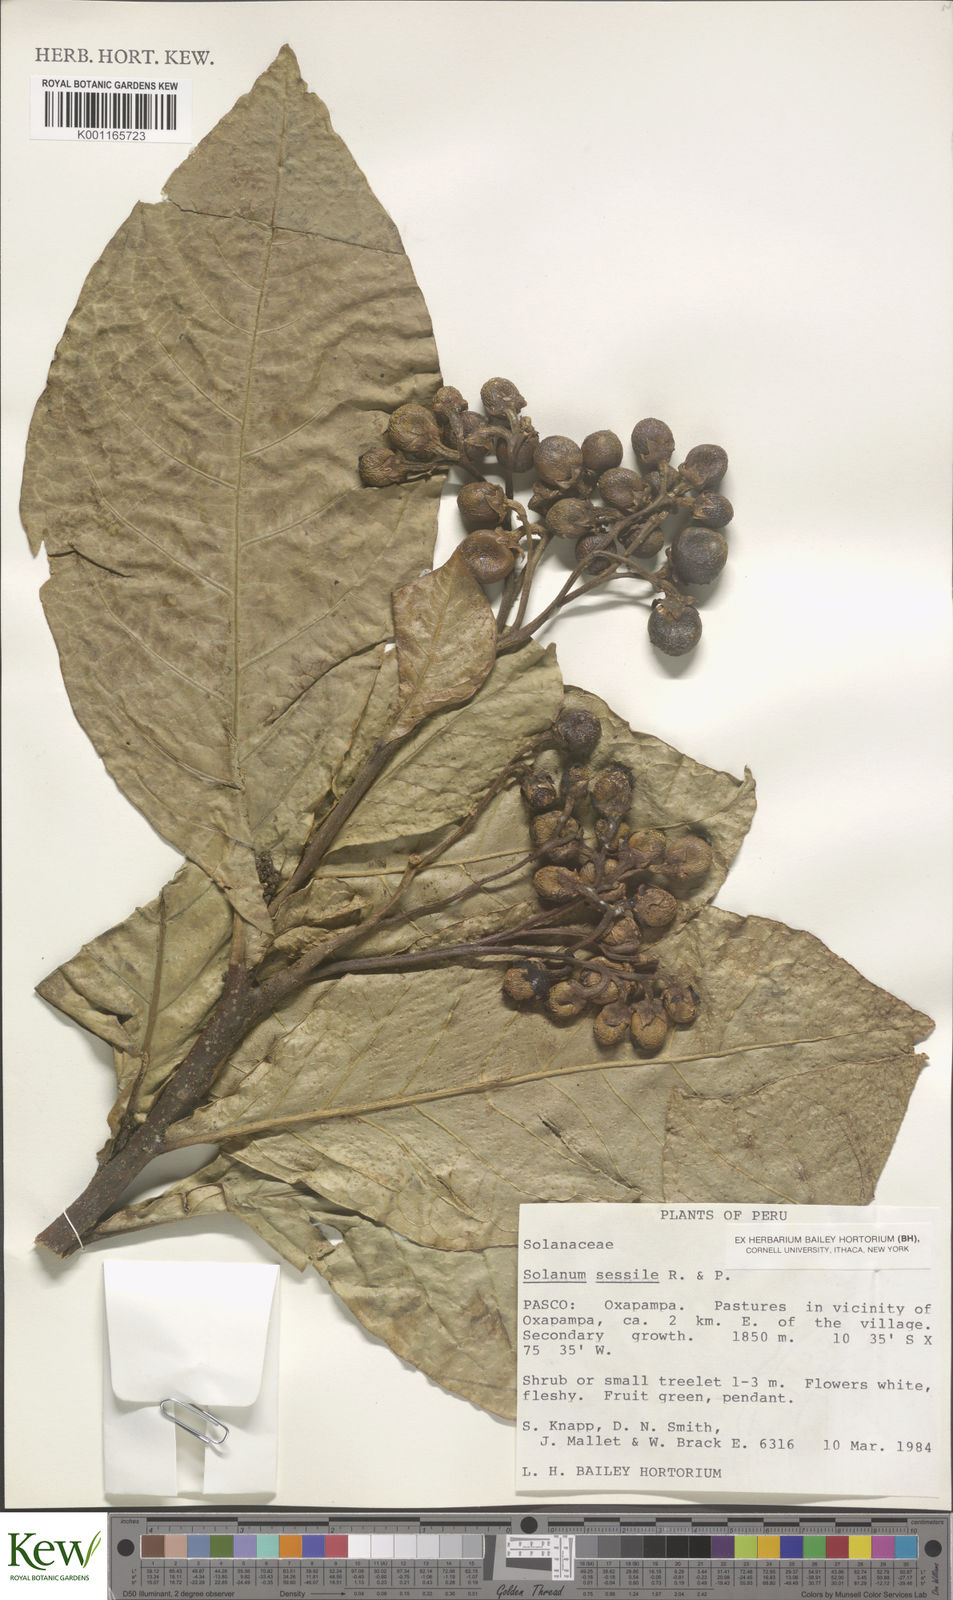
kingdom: Plantae
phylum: Tracheophyta
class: Magnoliopsida
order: Solanales
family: Solanaceae
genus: Solanum
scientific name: Solanum sessile
